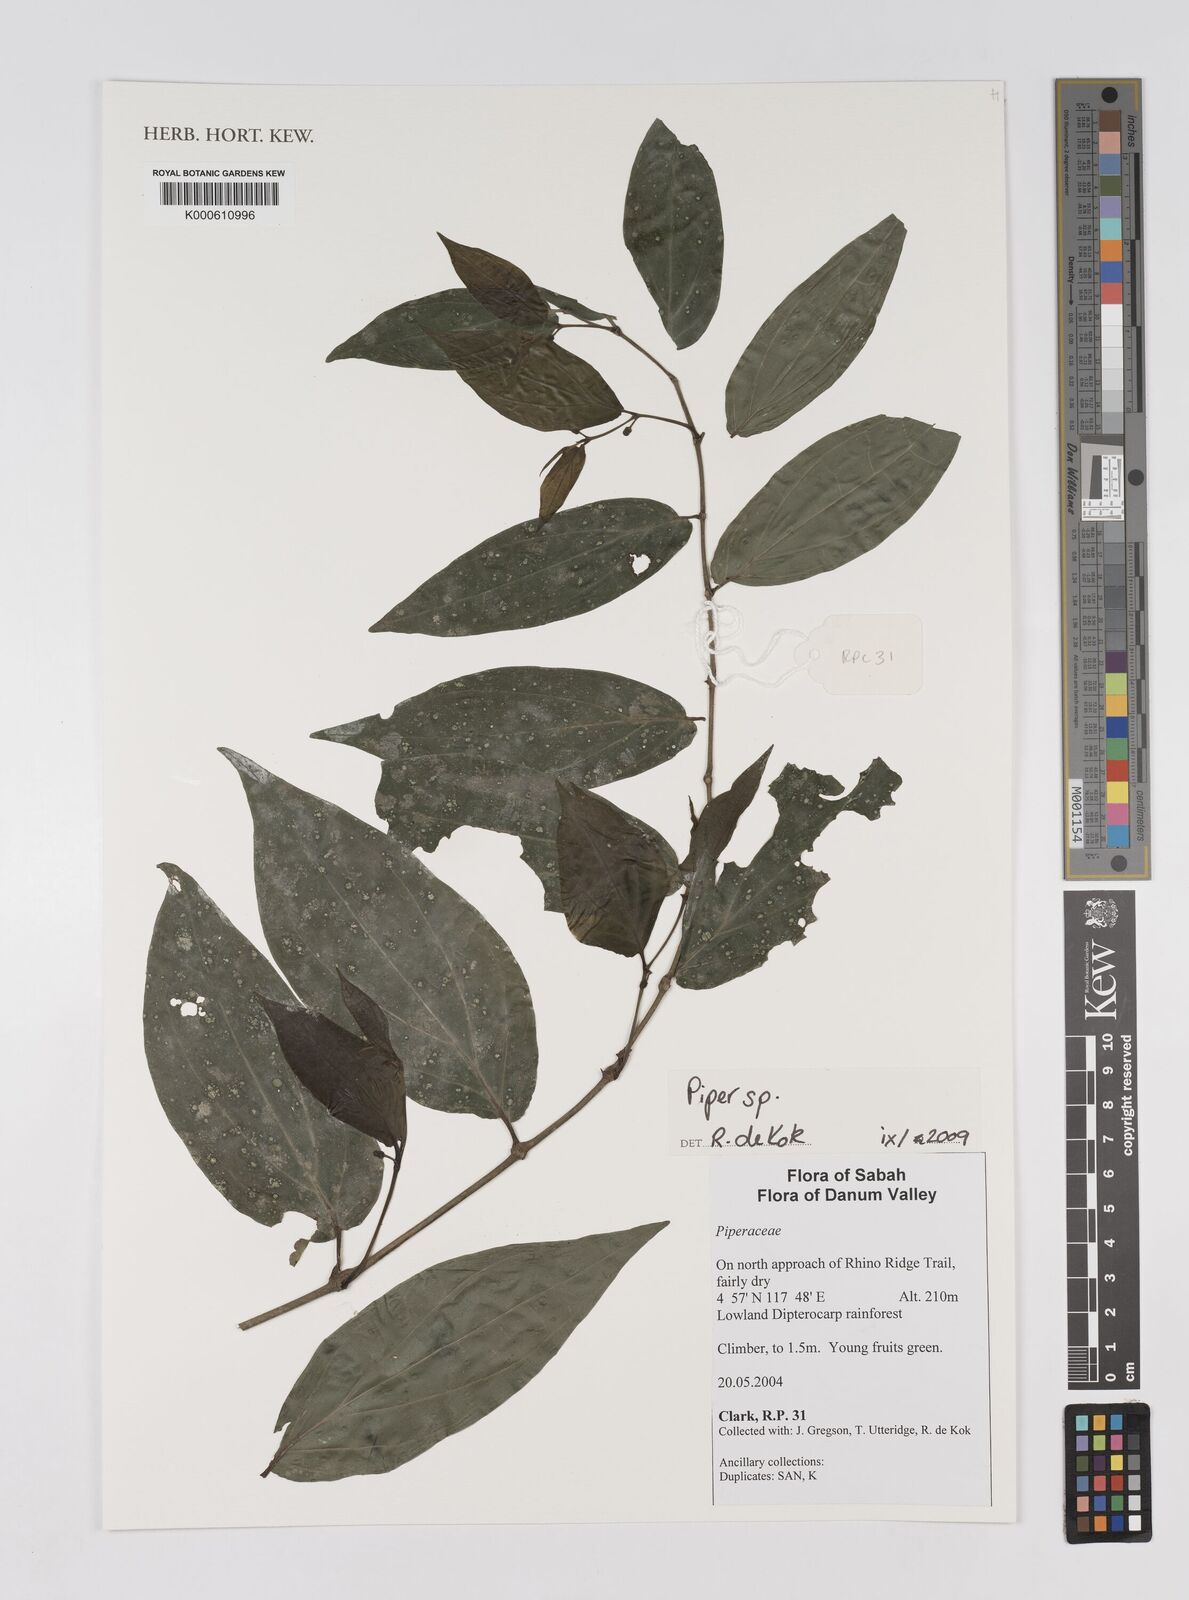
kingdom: Plantae
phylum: Tracheophyta
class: Magnoliopsida
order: Piperales
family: Piperaceae
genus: Piper
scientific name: Piper
